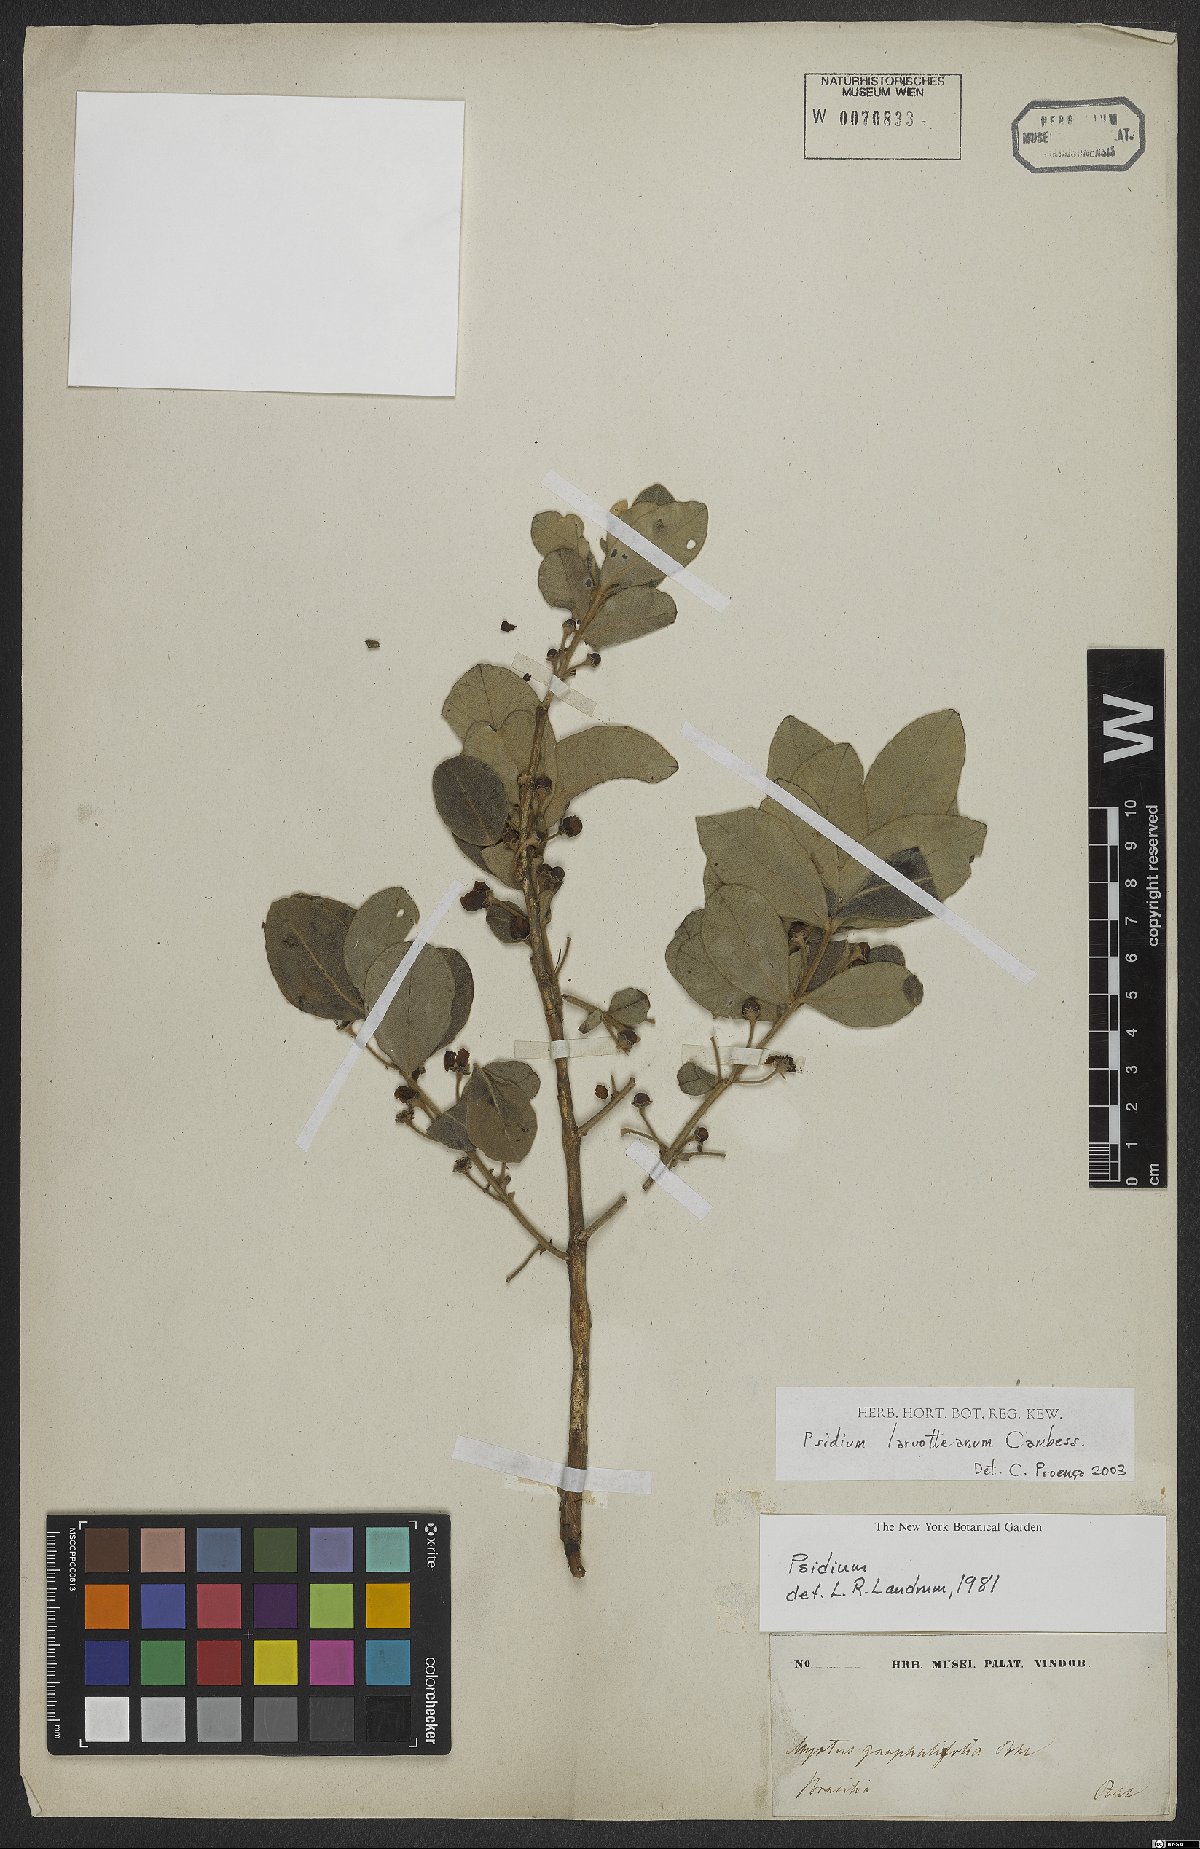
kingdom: Plantae
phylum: Tracheophyta
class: Magnoliopsida
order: Myrtales
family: Myrtaceae
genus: Psidium
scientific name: Psidium larueotteanum
